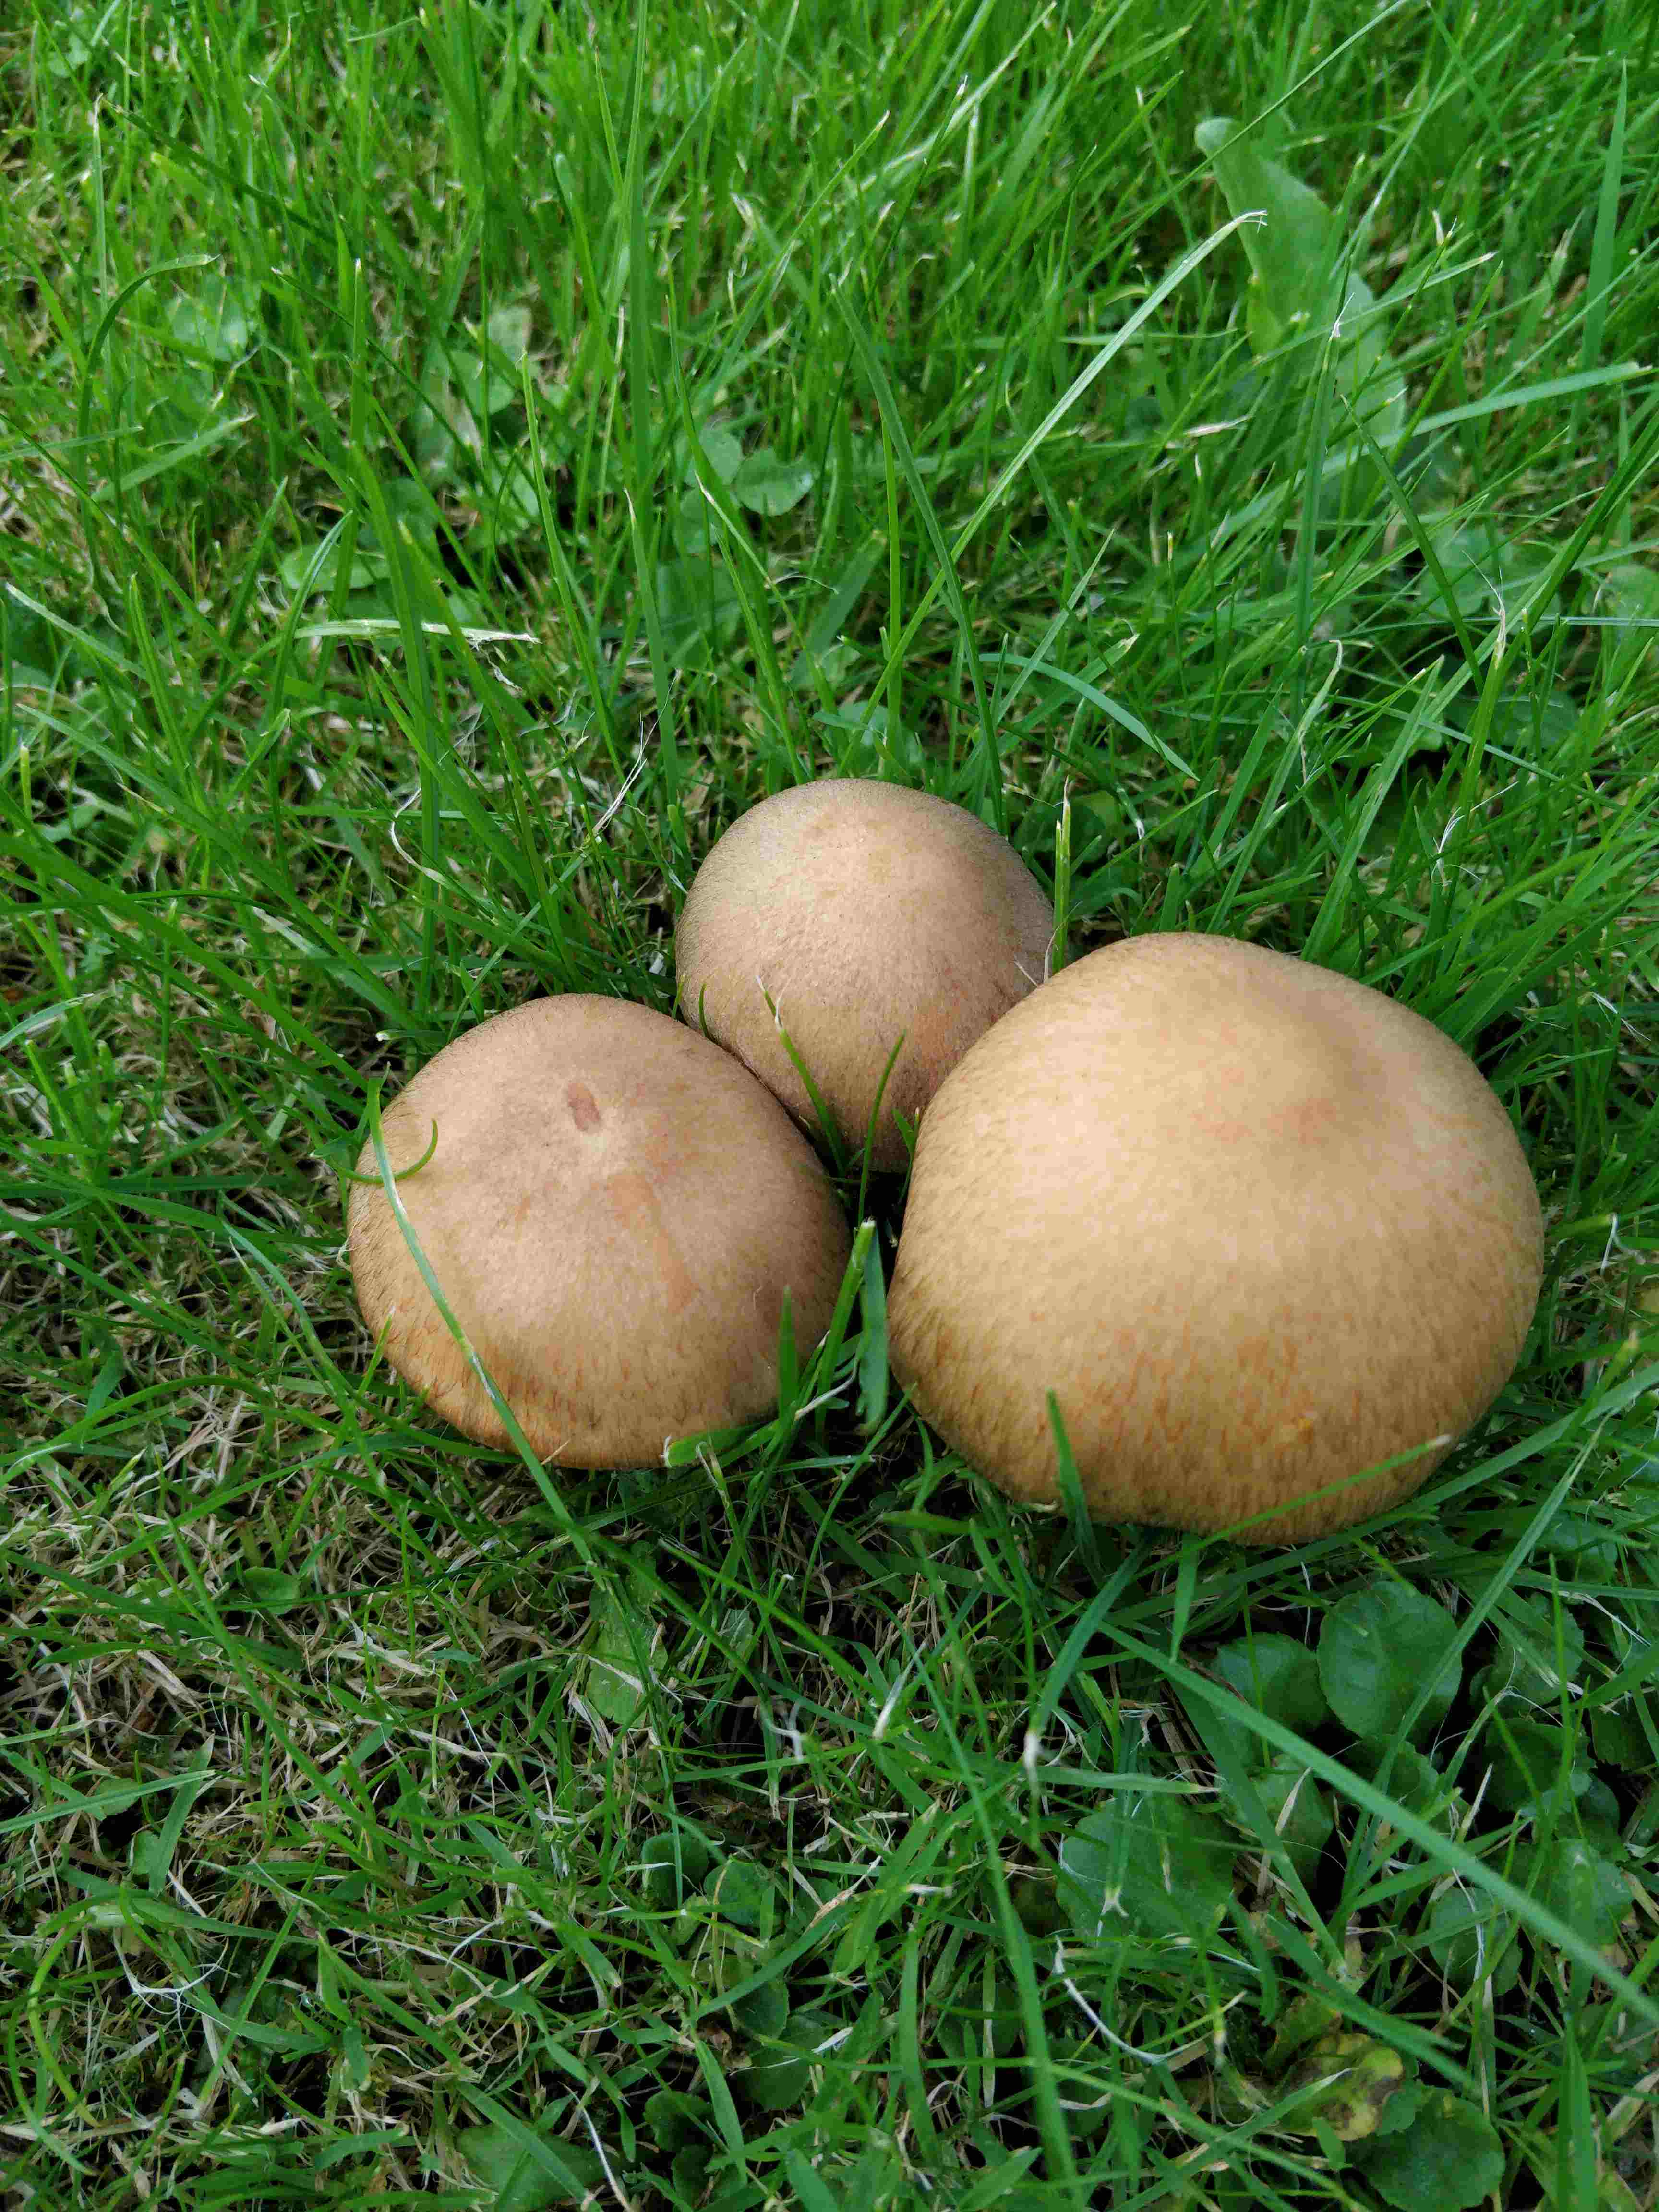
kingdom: Fungi
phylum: Basidiomycota
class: Agaricomycetes
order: Agaricales
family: Psathyrellaceae
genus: Lacrymaria
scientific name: Lacrymaria lacrymabunda
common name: grædende mørkhat
